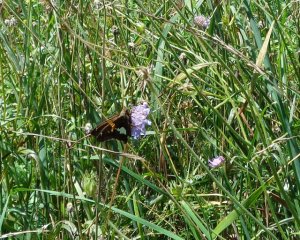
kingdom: Animalia
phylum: Arthropoda
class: Insecta
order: Lepidoptera
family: Hesperiidae
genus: Epargyreus
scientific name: Epargyreus clarus
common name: Silver-spotted Skipper
